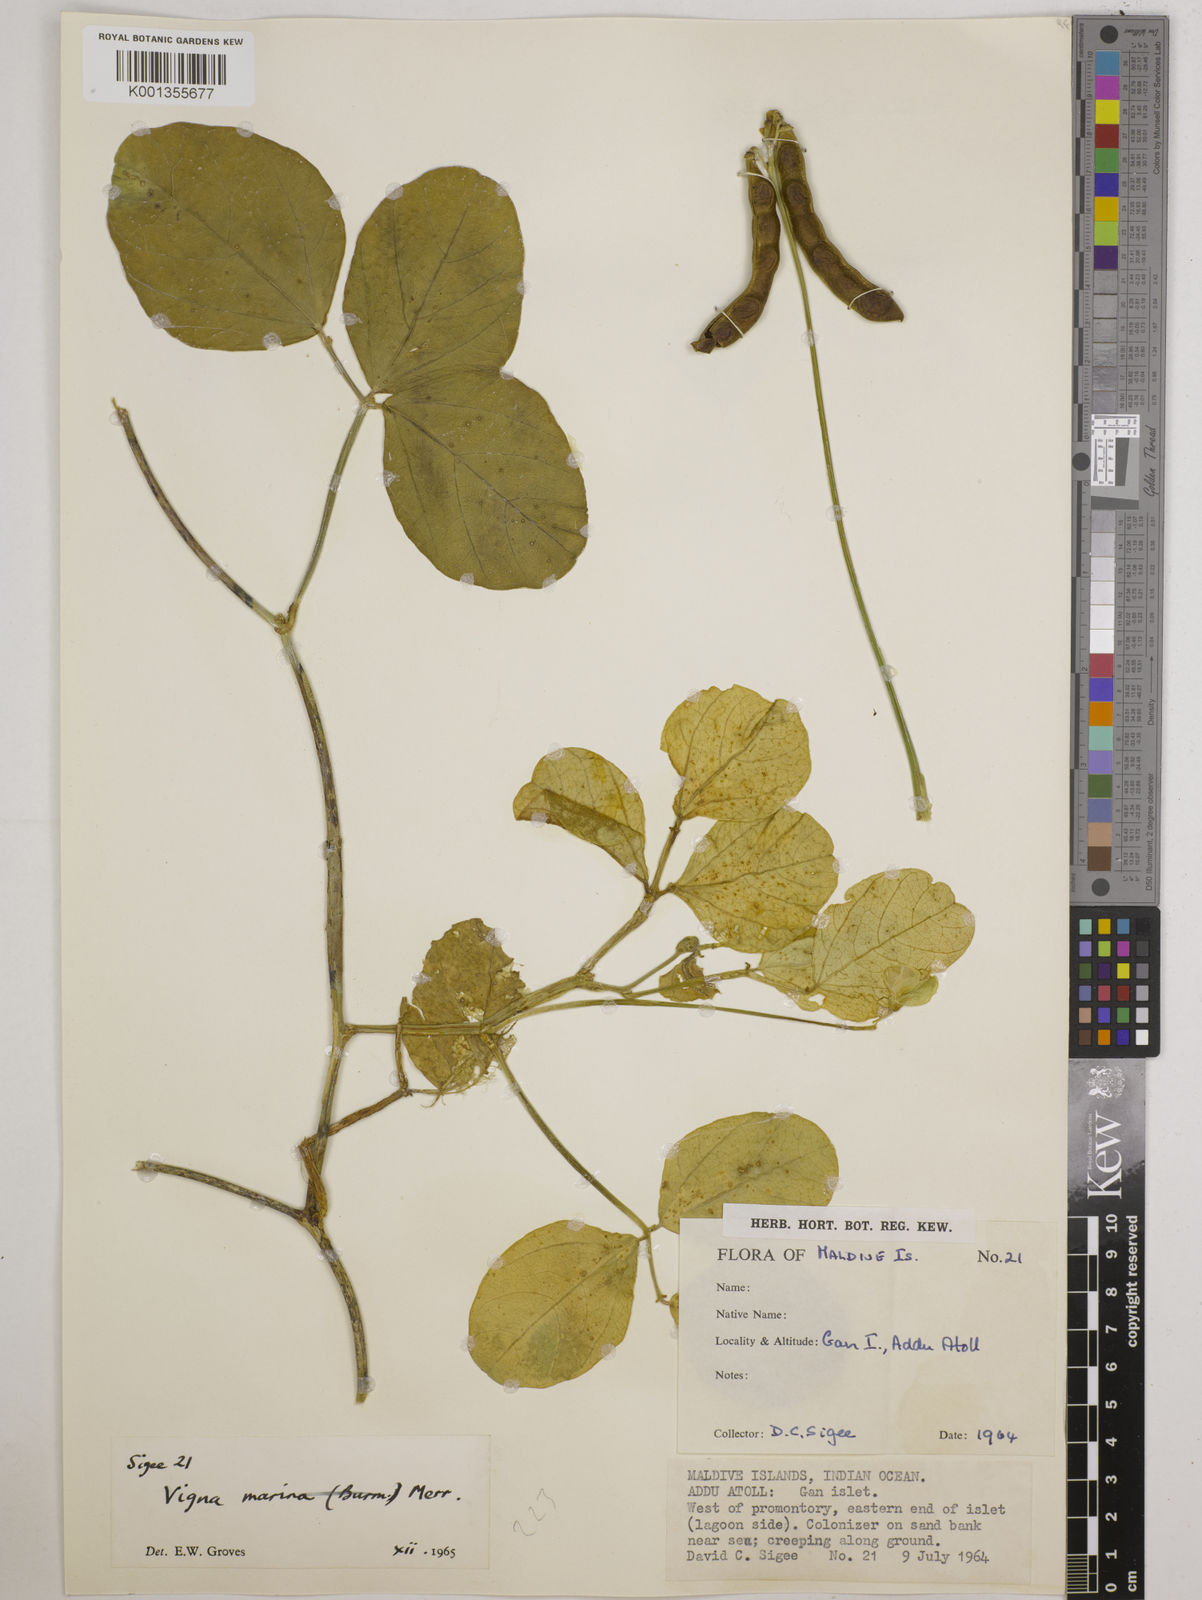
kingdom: Plantae
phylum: Tracheophyta
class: Magnoliopsida
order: Fabales
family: Fabaceae
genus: Vigna
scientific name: Vigna marina
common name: Dune-bean
